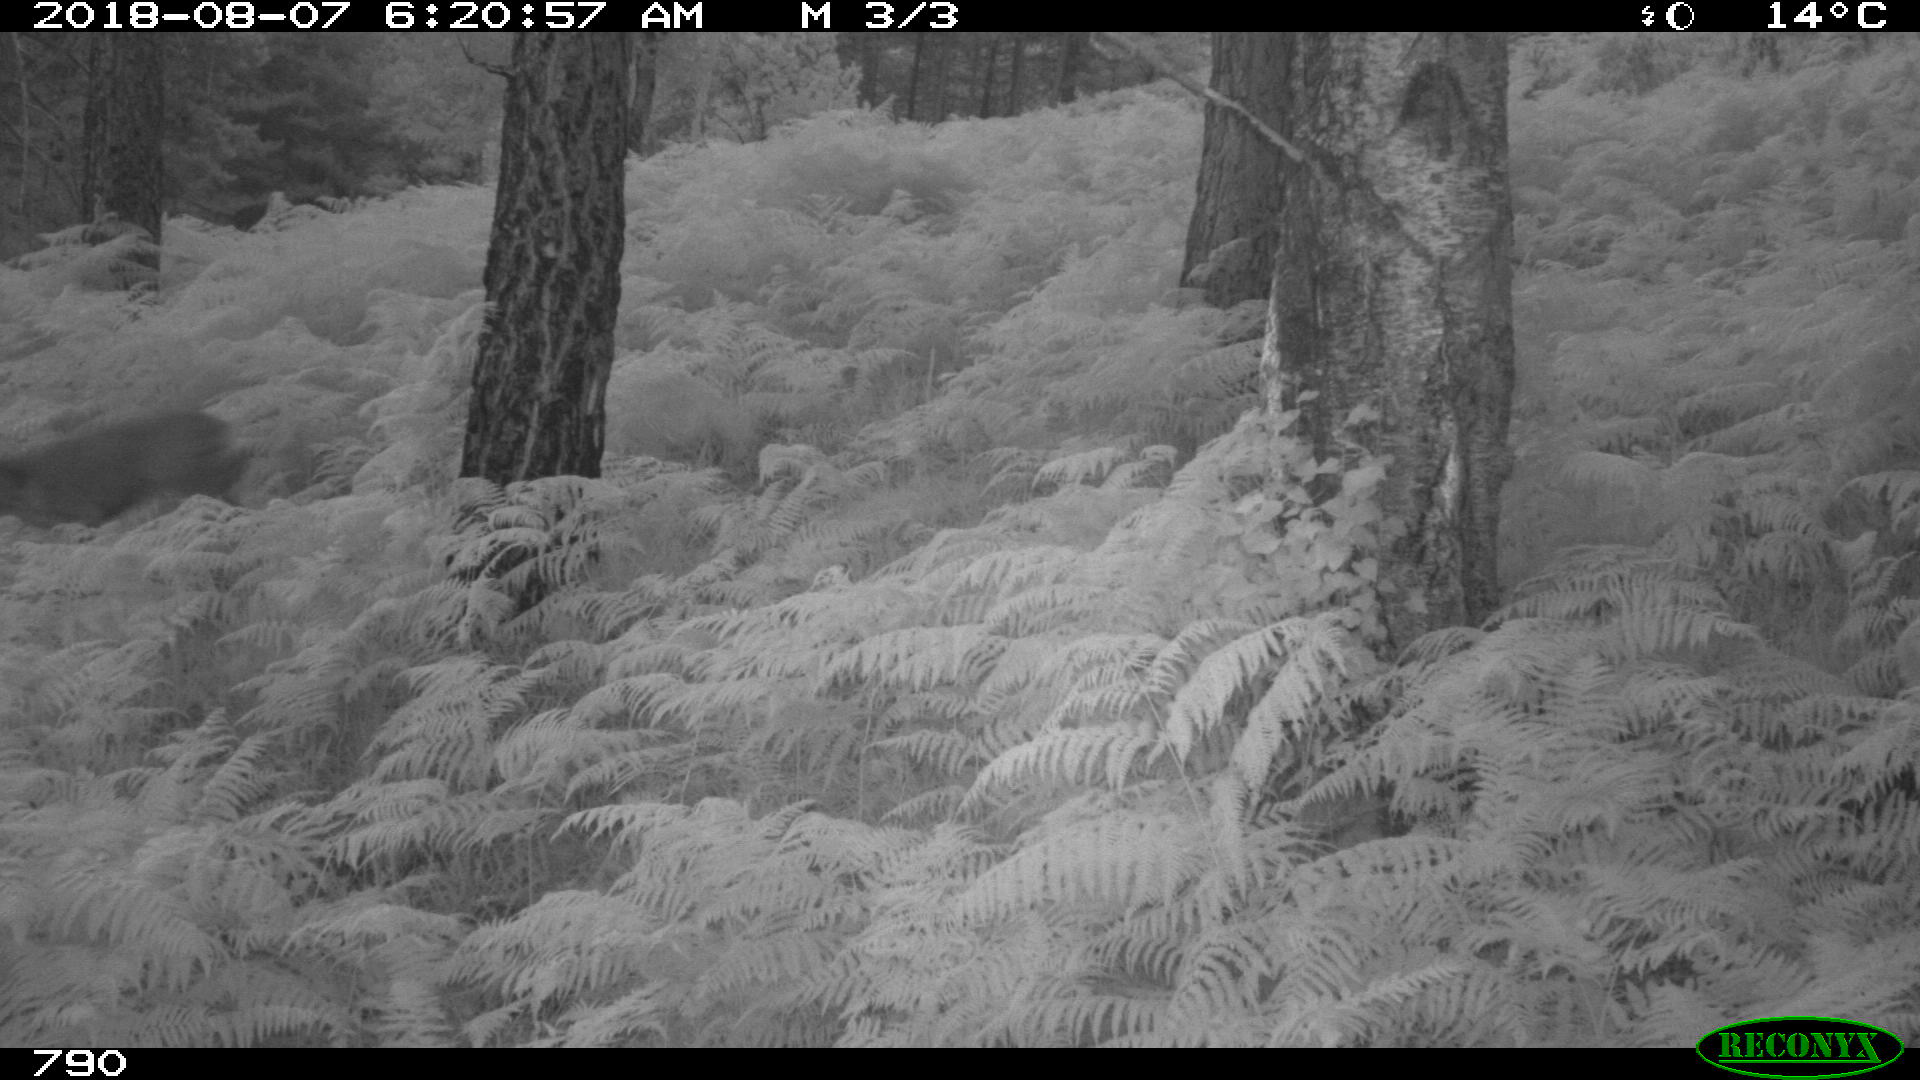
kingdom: Animalia
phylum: Chordata
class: Mammalia
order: Artiodactyla
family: Cervidae
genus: Capreolus
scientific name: Capreolus capreolus
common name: Western roe deer
